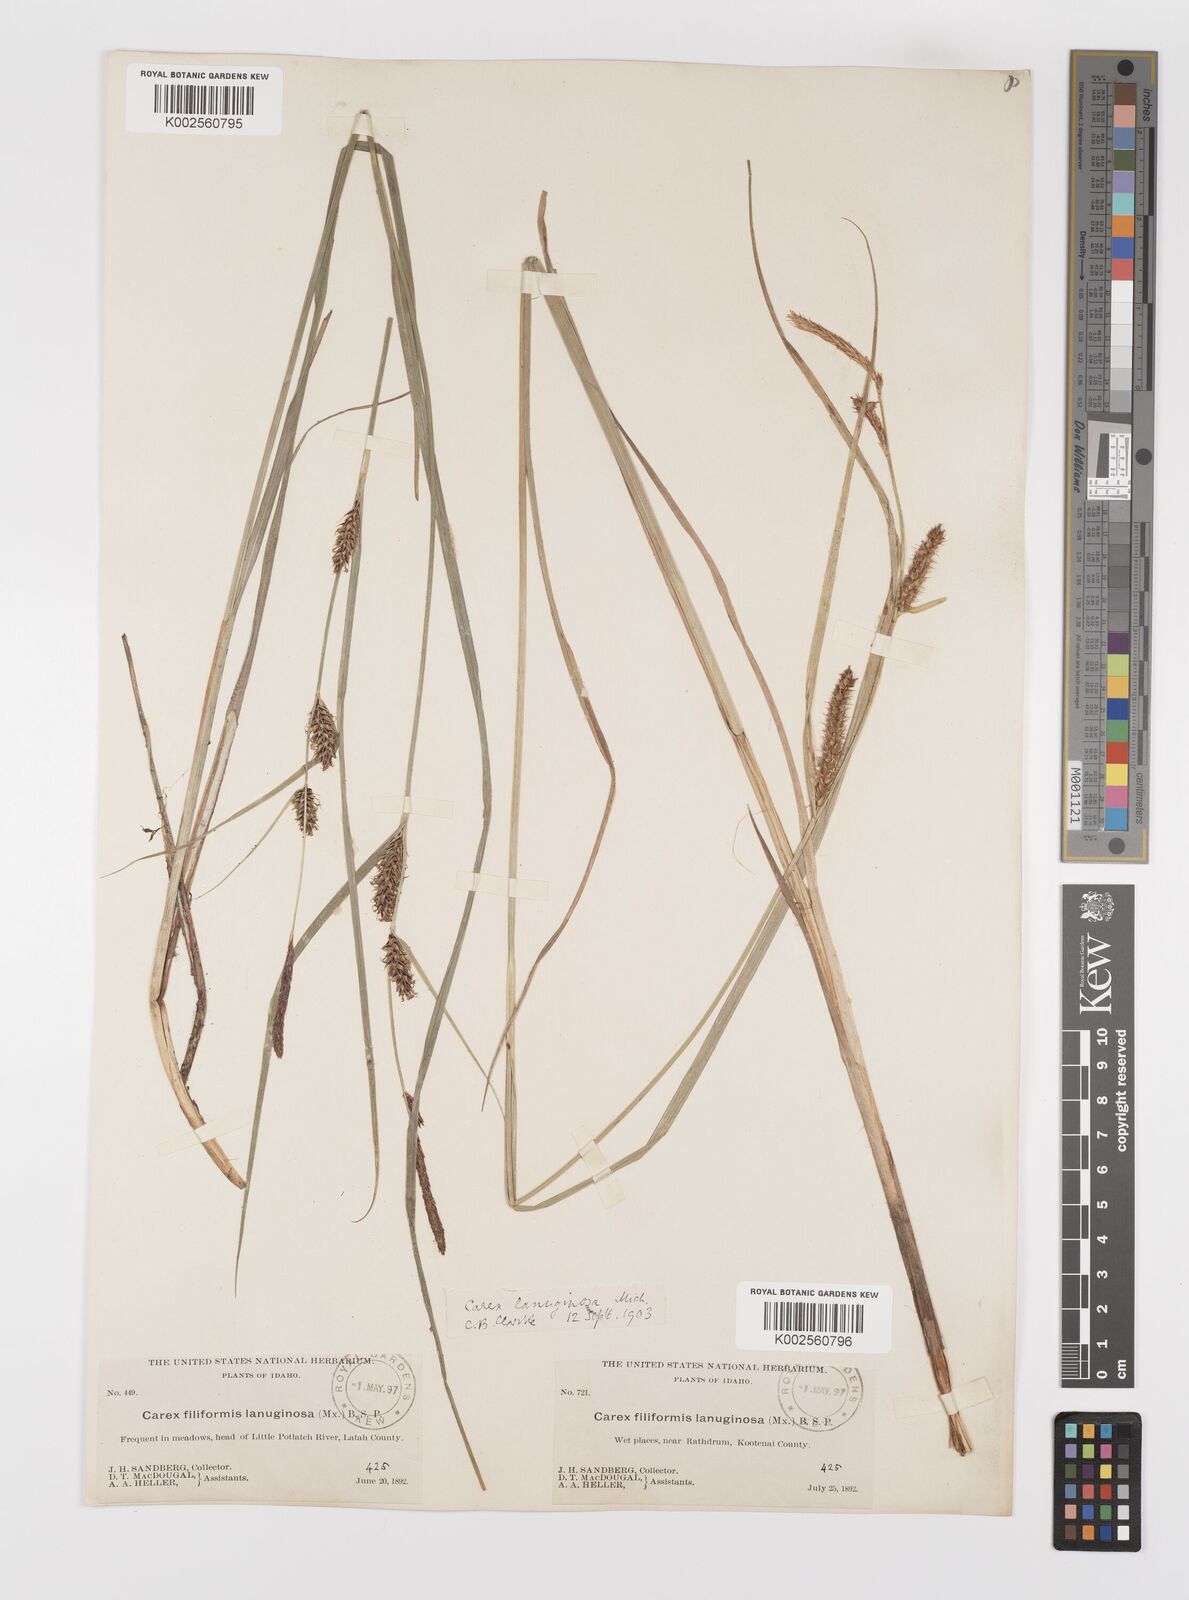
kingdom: Plantae
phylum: Tracheophyta
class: Liliopsida
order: Poales
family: Cyperaceae
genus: Carex
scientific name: Carex lasiocarpa
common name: Slender sedge
